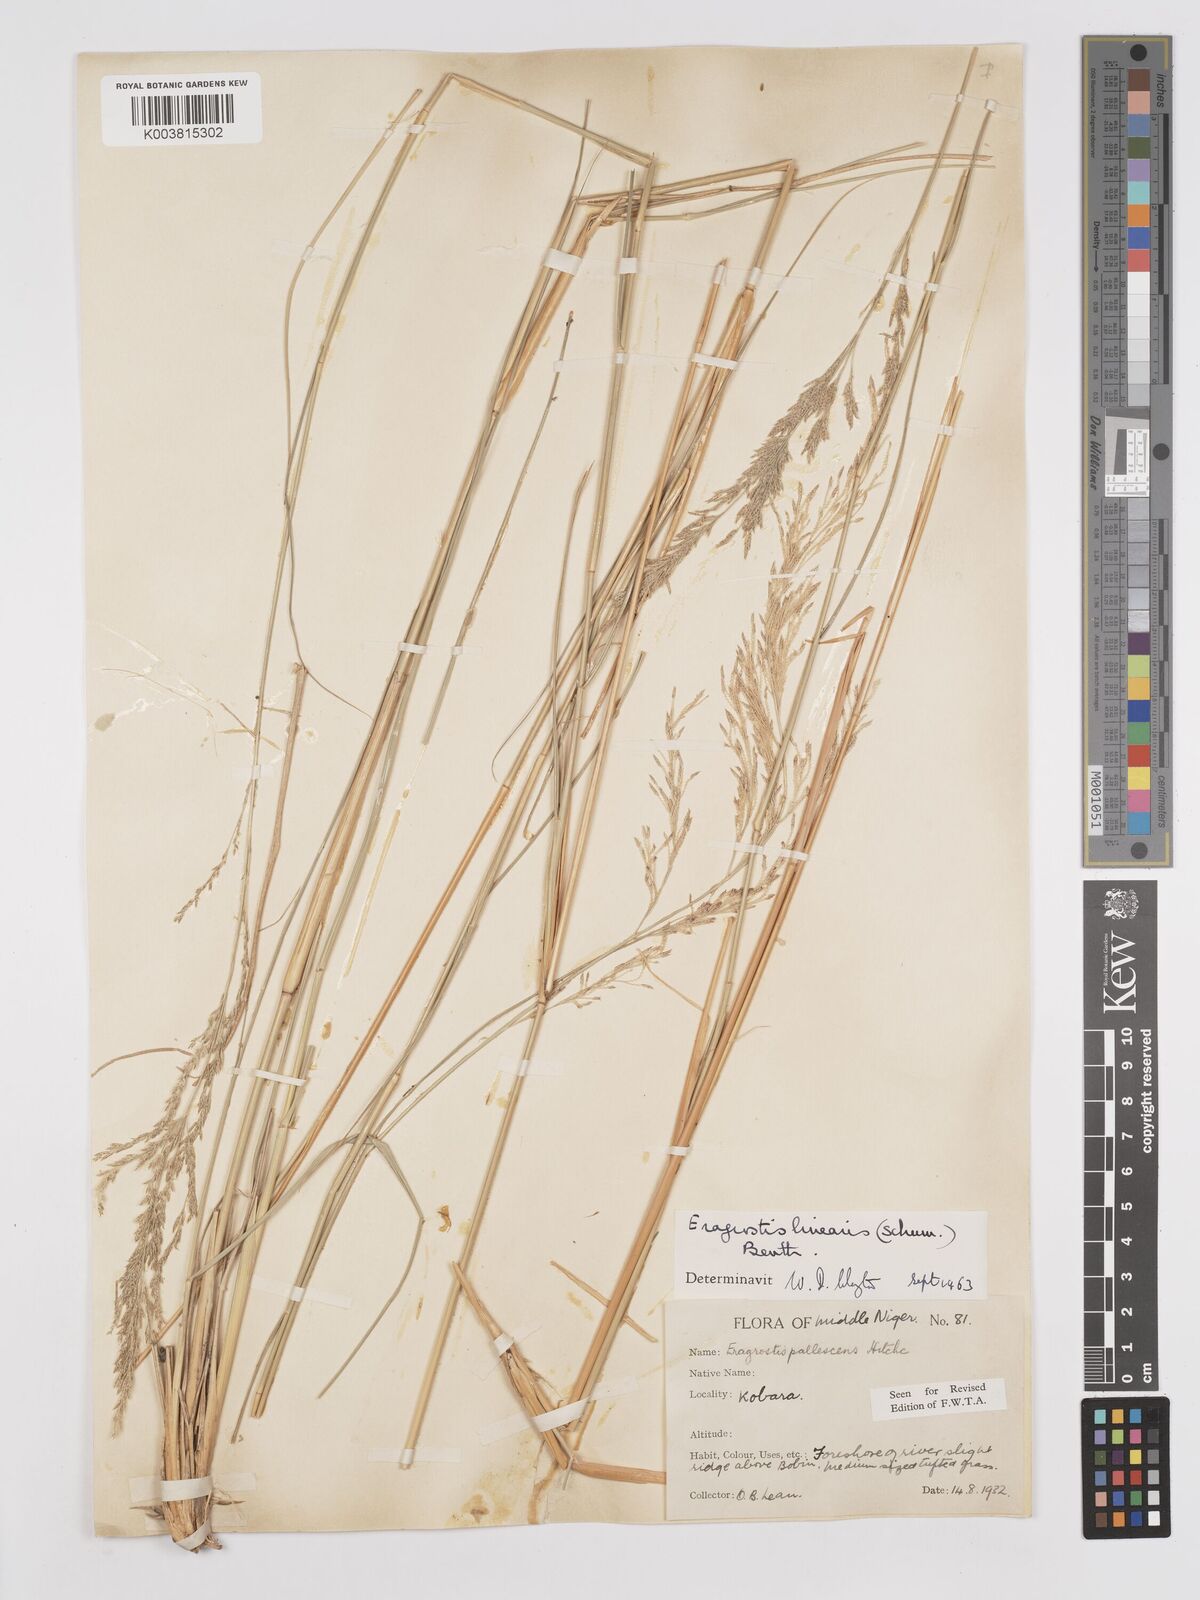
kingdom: Plantae
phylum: Tracheophyta
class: Liliopsida
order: Poales
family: Poaceae
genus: Eragrostis
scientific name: Eragrostis prolifera
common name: Dominican lovegrass
